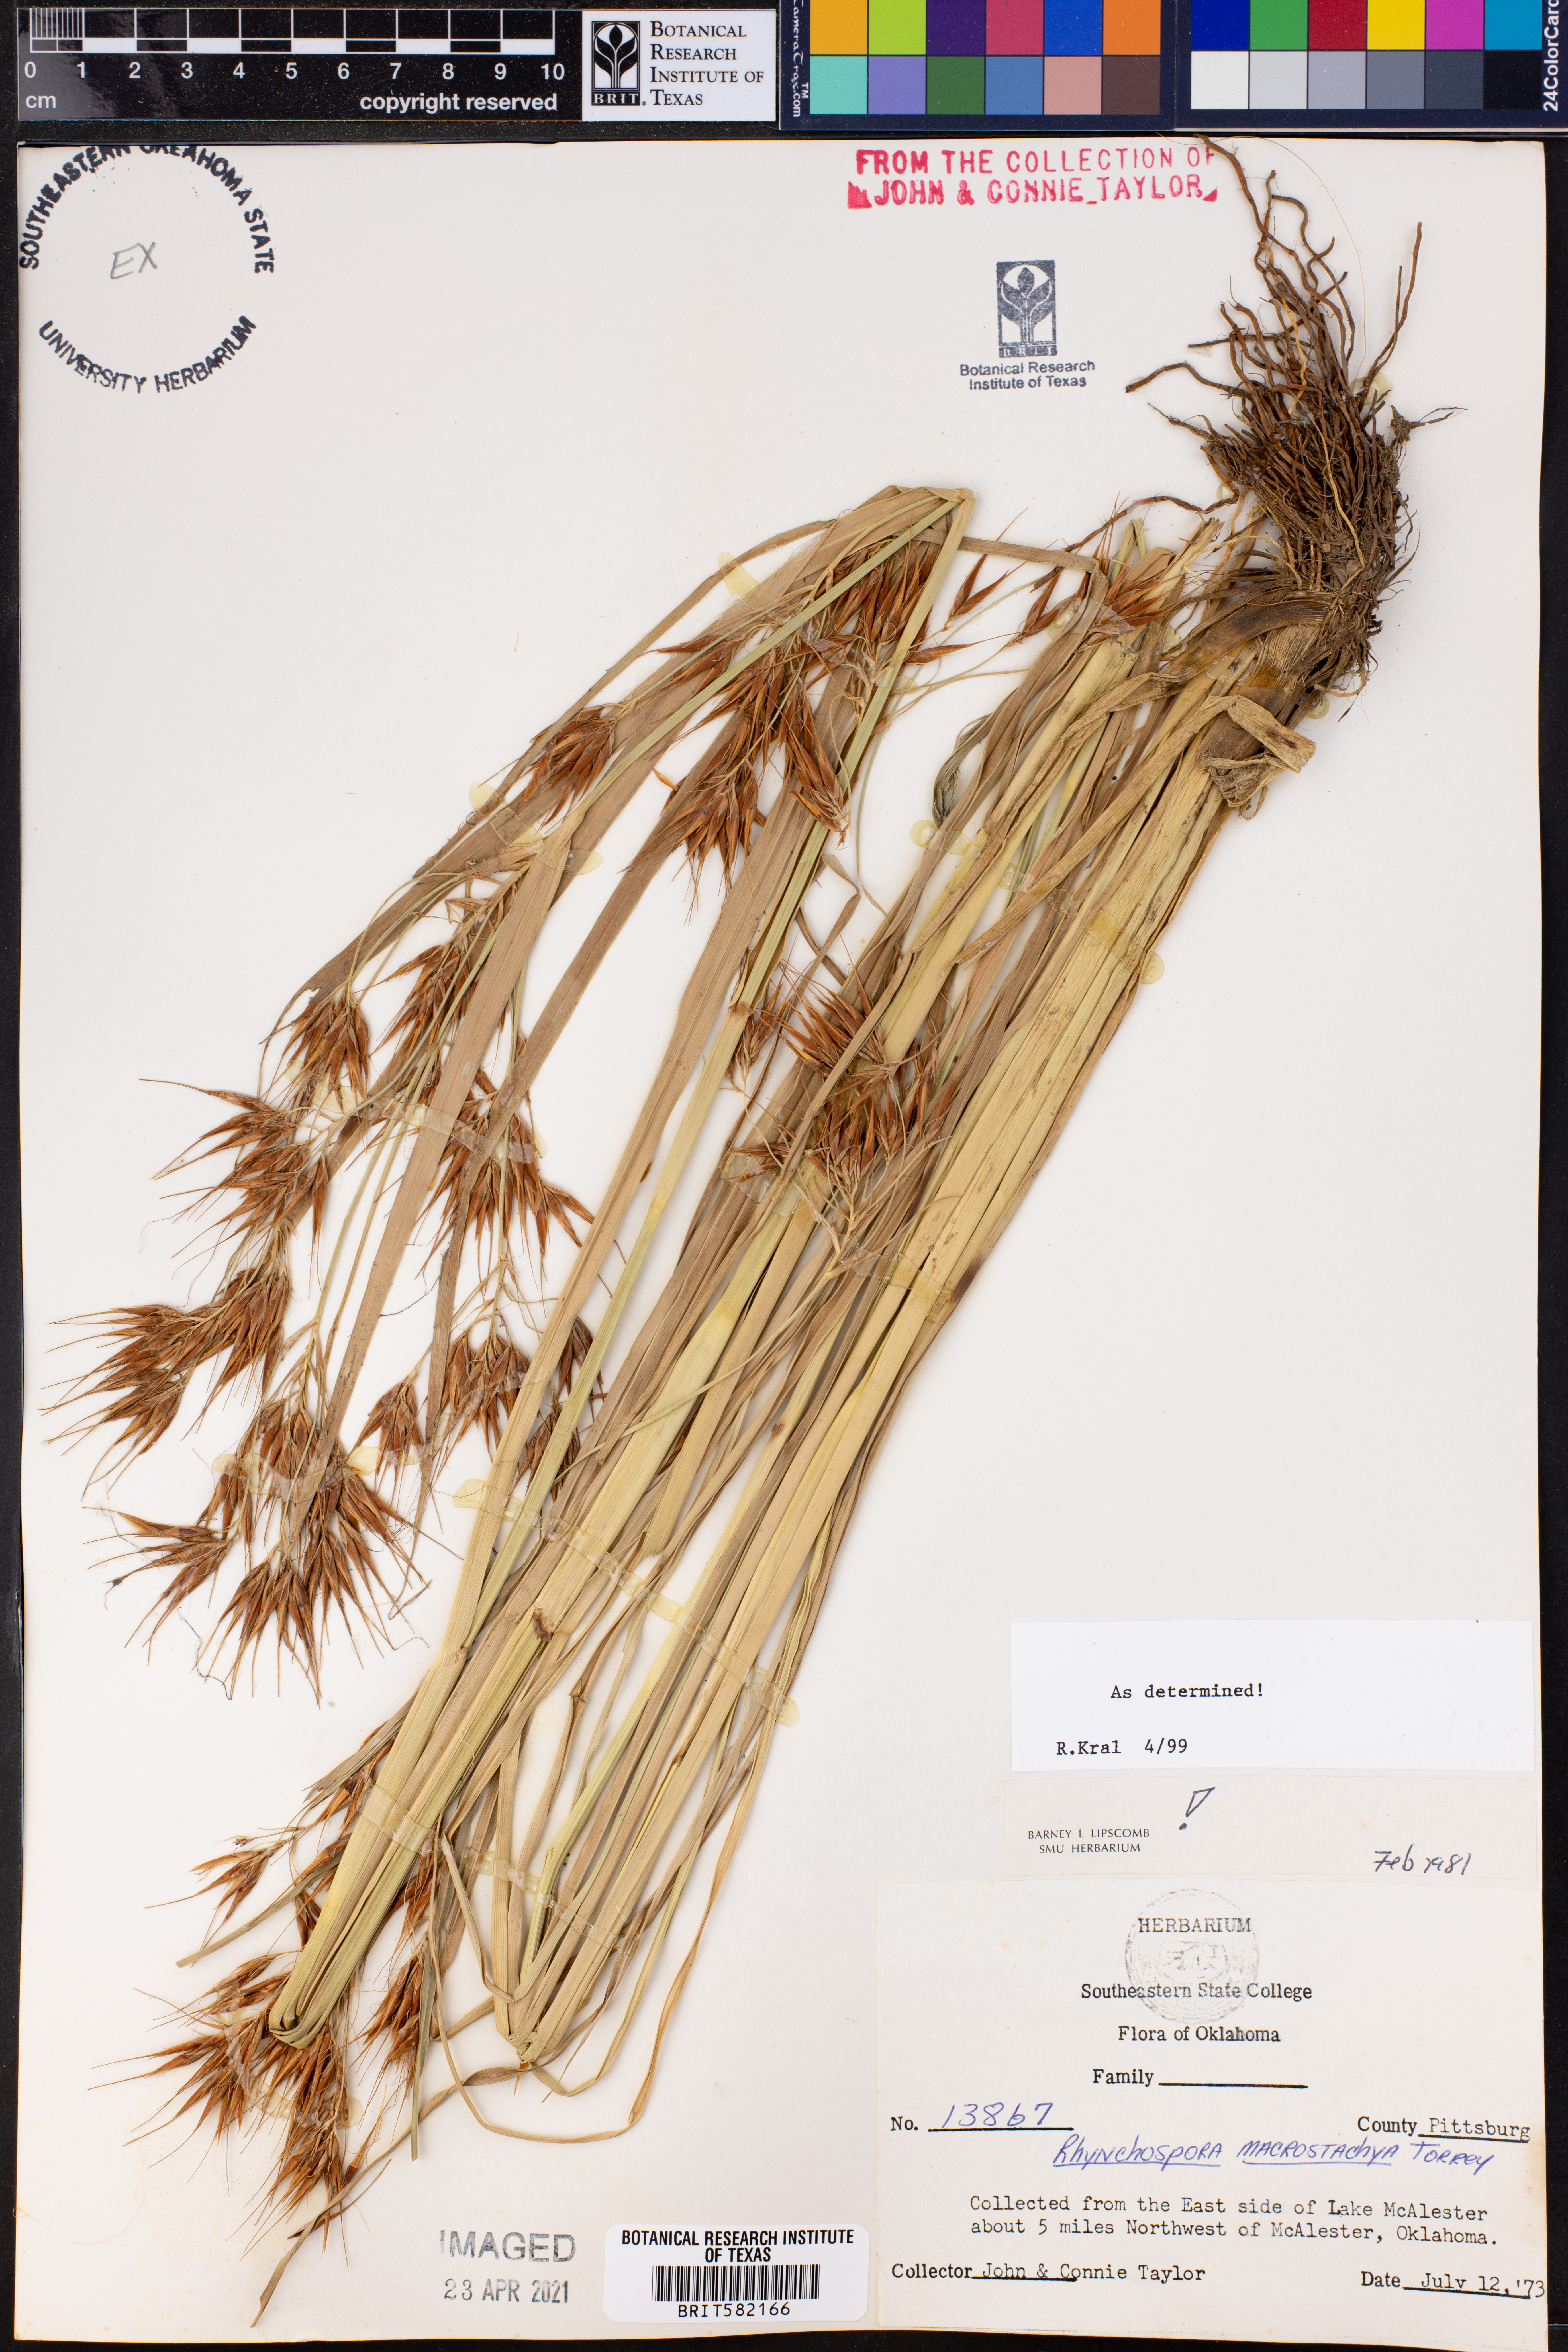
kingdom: Plantae
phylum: Tracheophyta
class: Liliopsida
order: Poales
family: Cyperaceae
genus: Rhynchospora
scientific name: Rhynchospora macrostachya
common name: Tall beakrush
